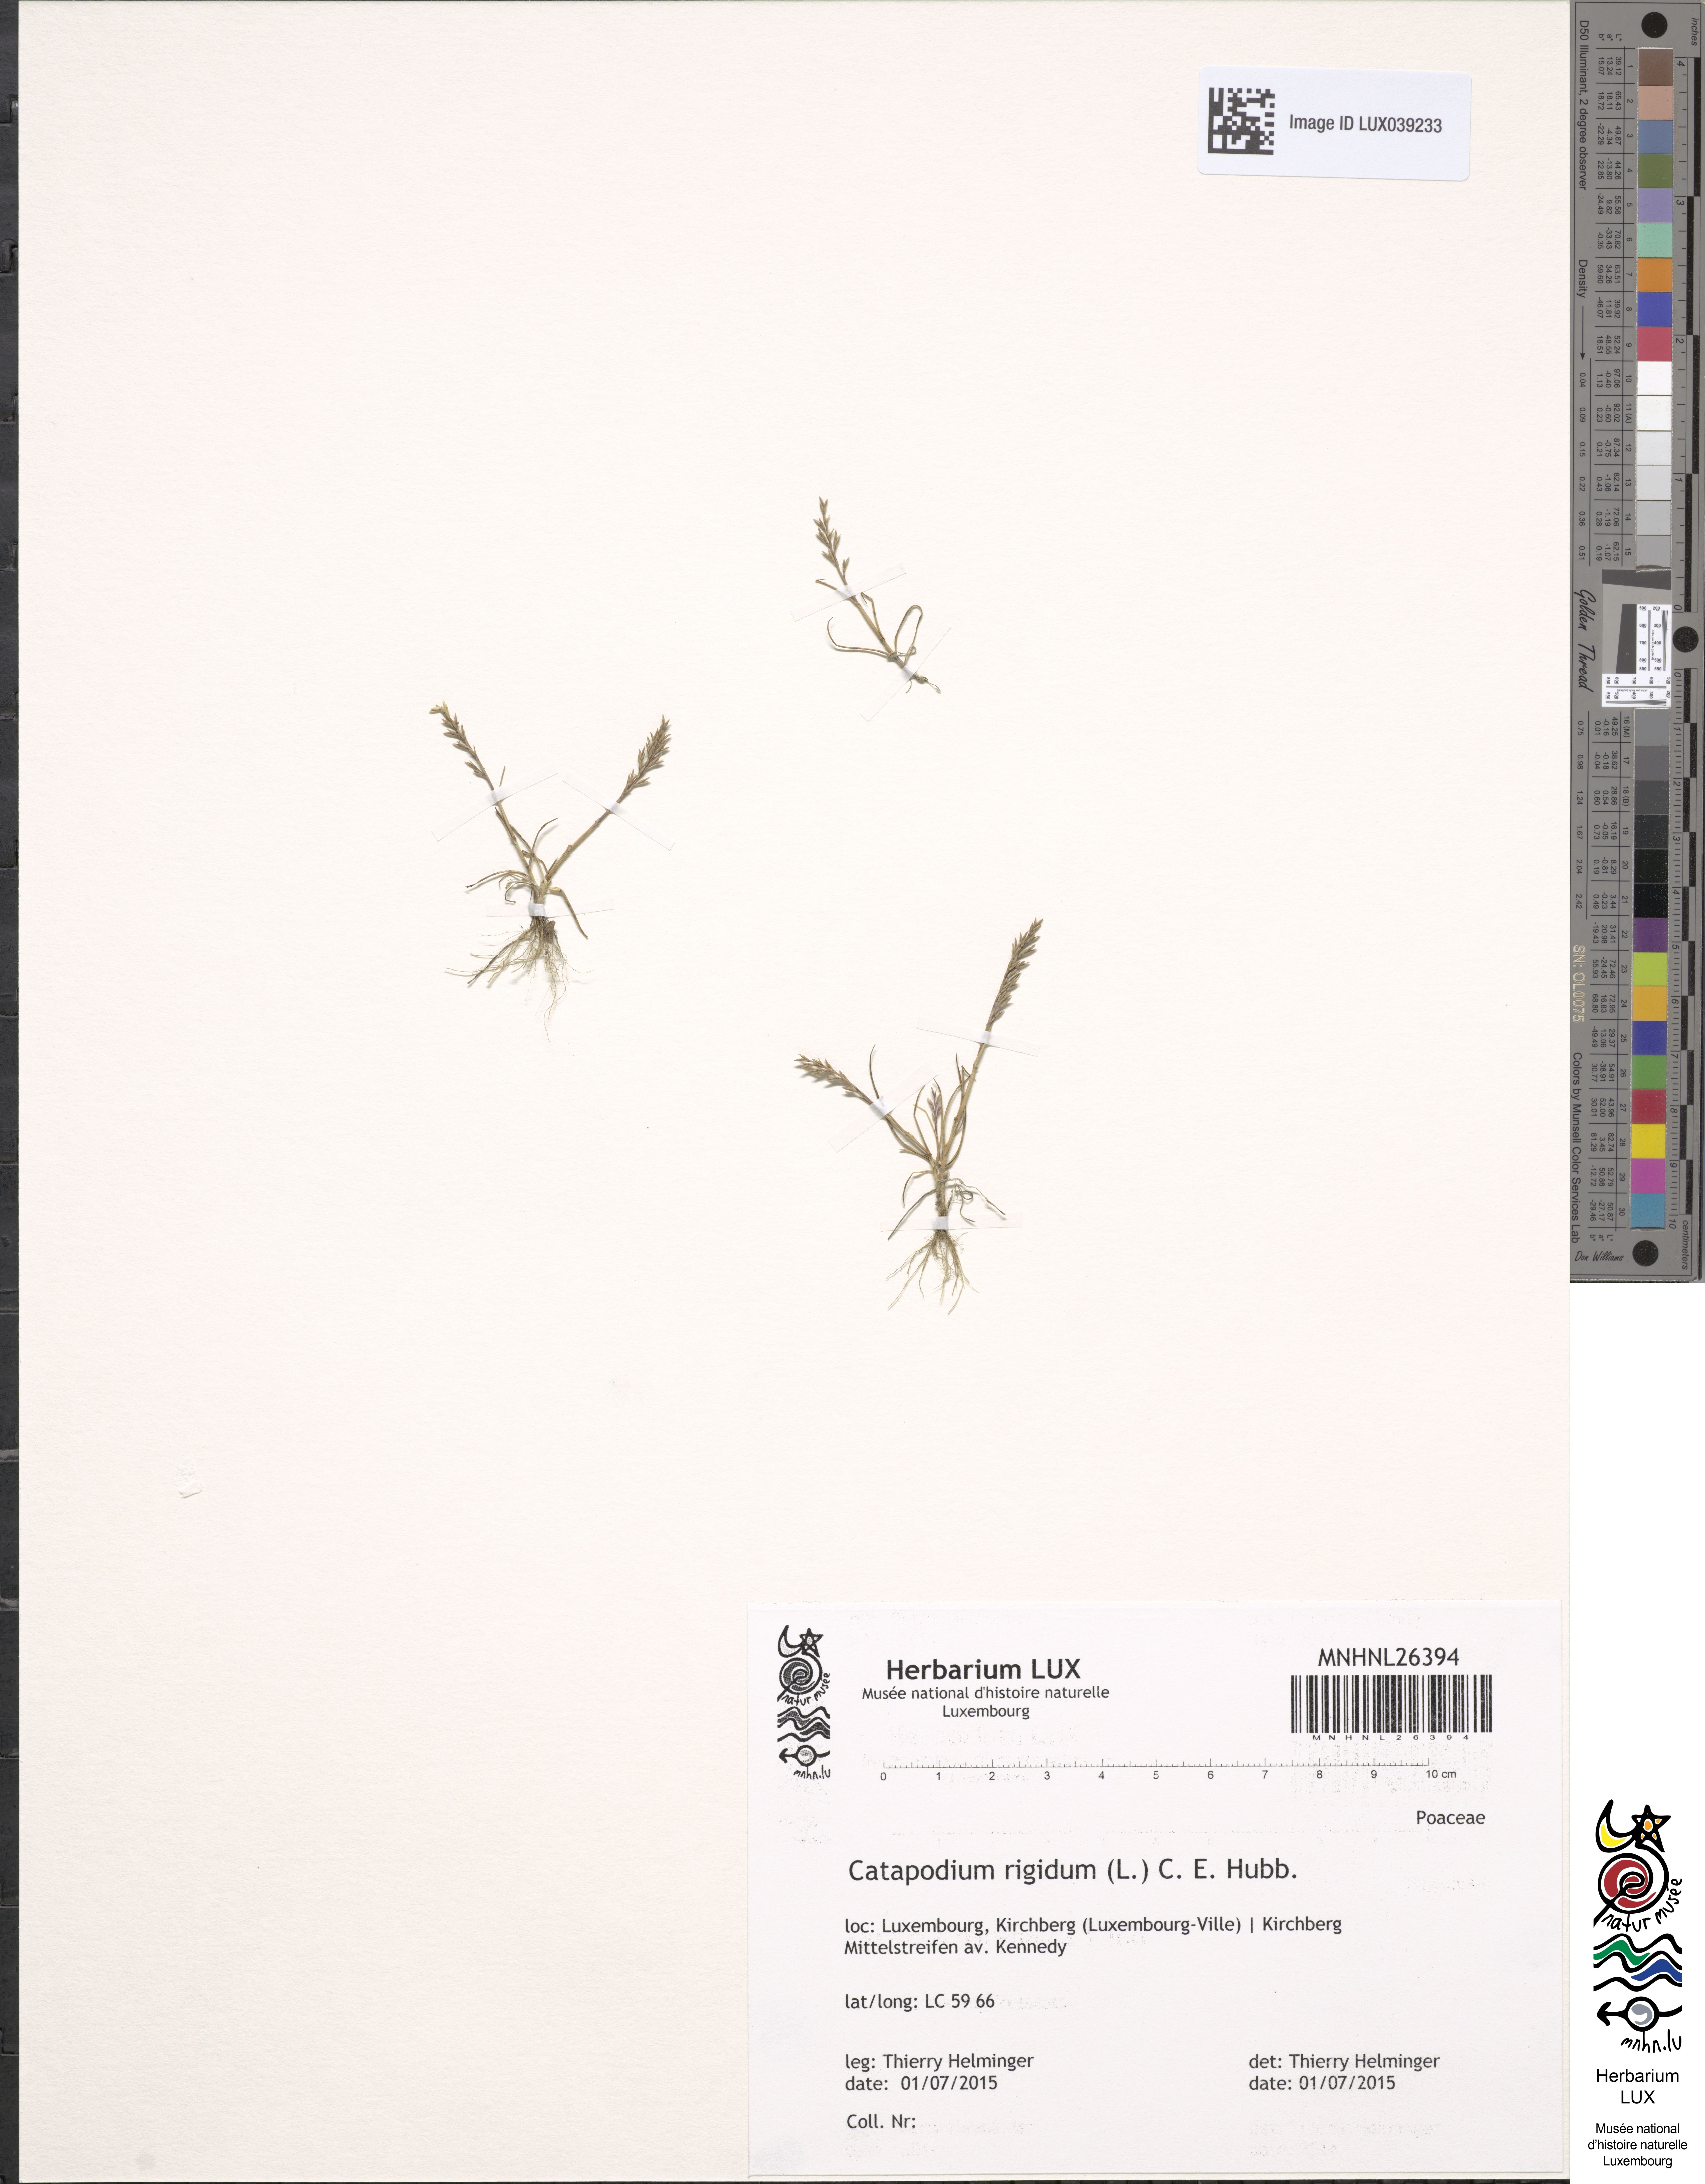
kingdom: Plantae
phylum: Tracheophyta
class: Liliopsida
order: Poales
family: Poaceae
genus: Catapodium
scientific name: Catapodium rigidum
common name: Fern-grass
